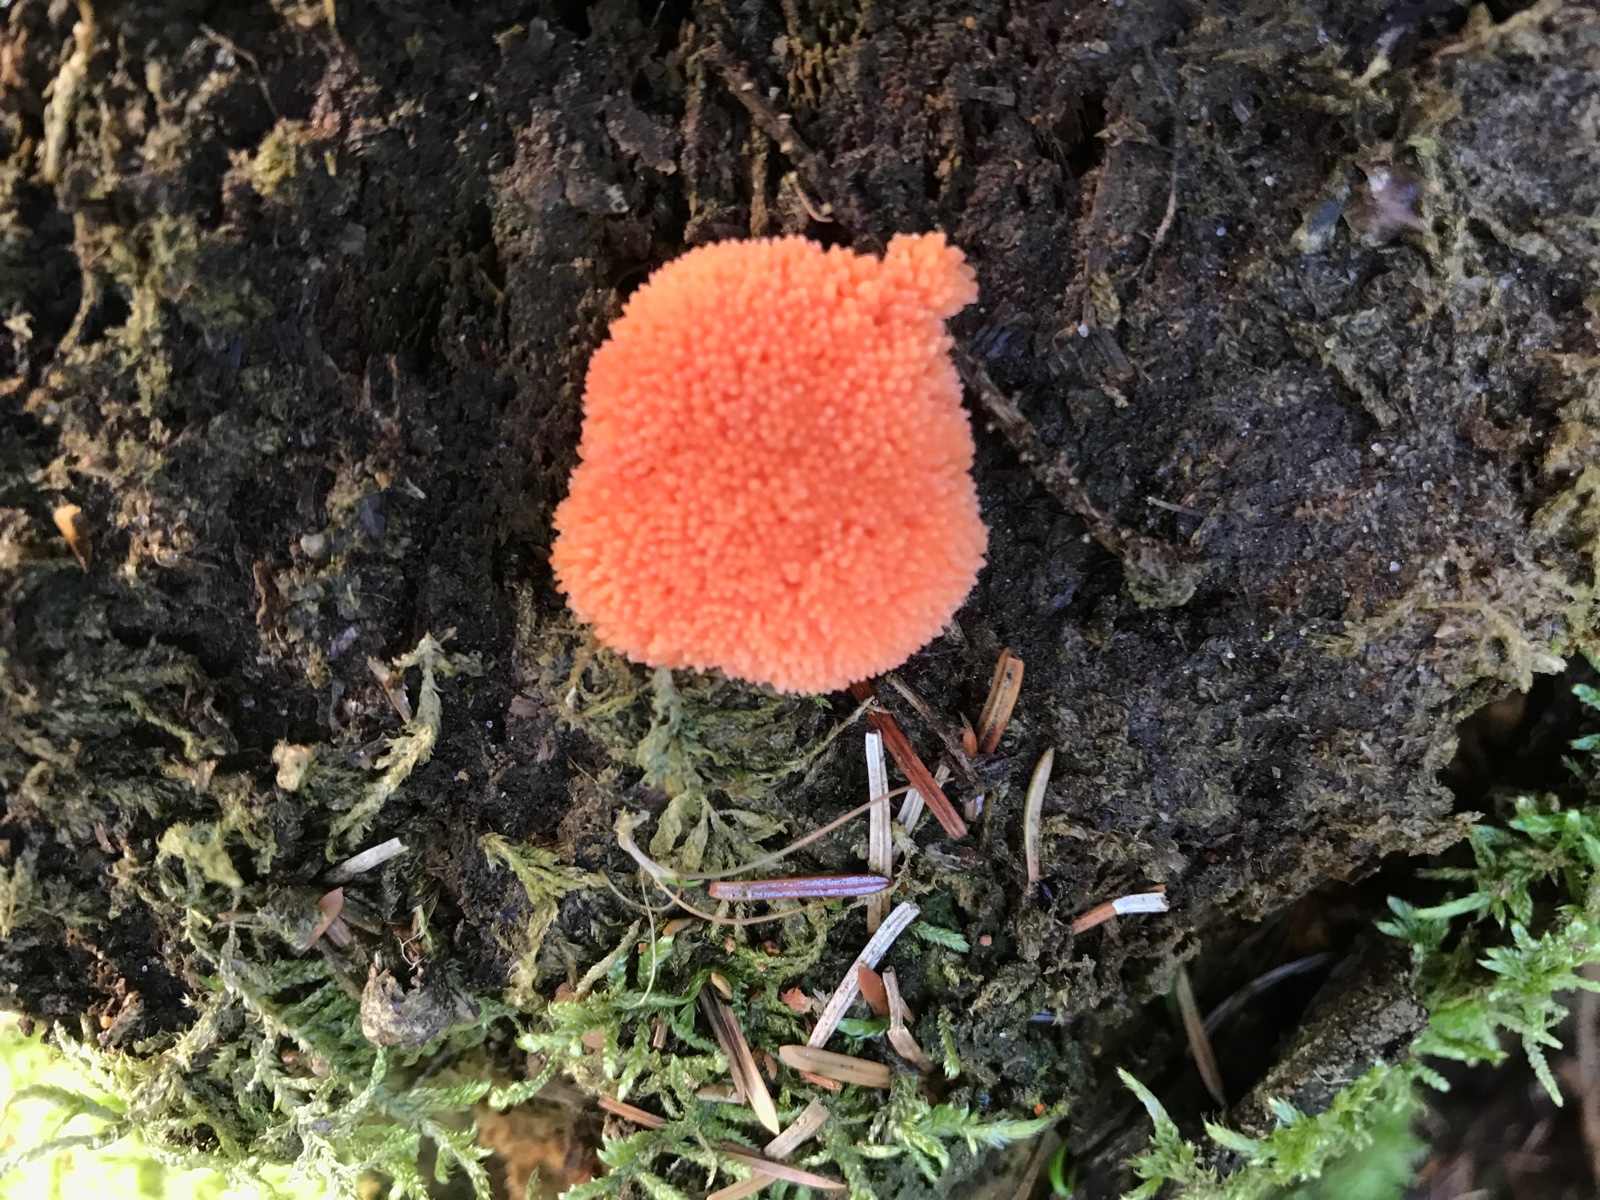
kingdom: Protozoa
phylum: Mycetozoa
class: Myxomycetes
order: Cribrariales
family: Tubiferaceae
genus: Tubifera
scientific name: Tubifera ferruginosa
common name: kanel-støvrør
